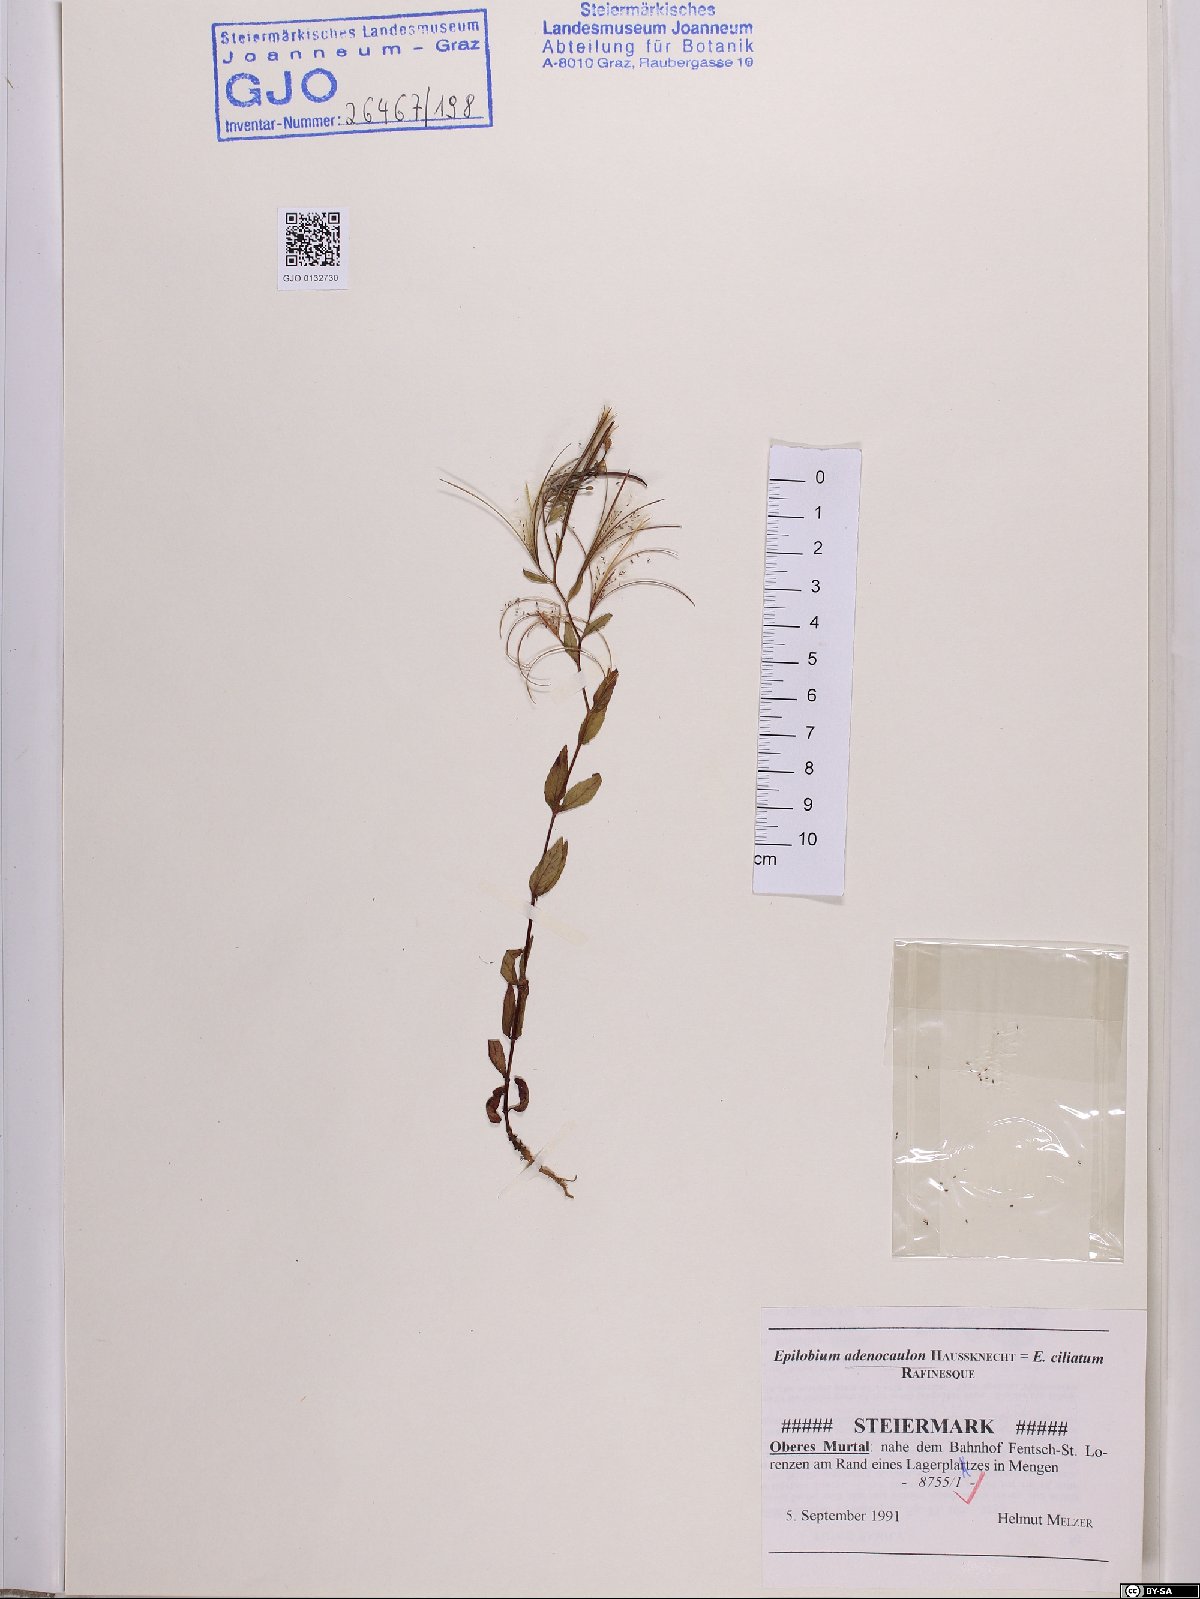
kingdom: Plantae
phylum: Tracheophyta
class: Magnoliopsida
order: Myrtales
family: Onagraceae
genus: Epilobium
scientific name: Epilobium ciliatum
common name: American willowherb
